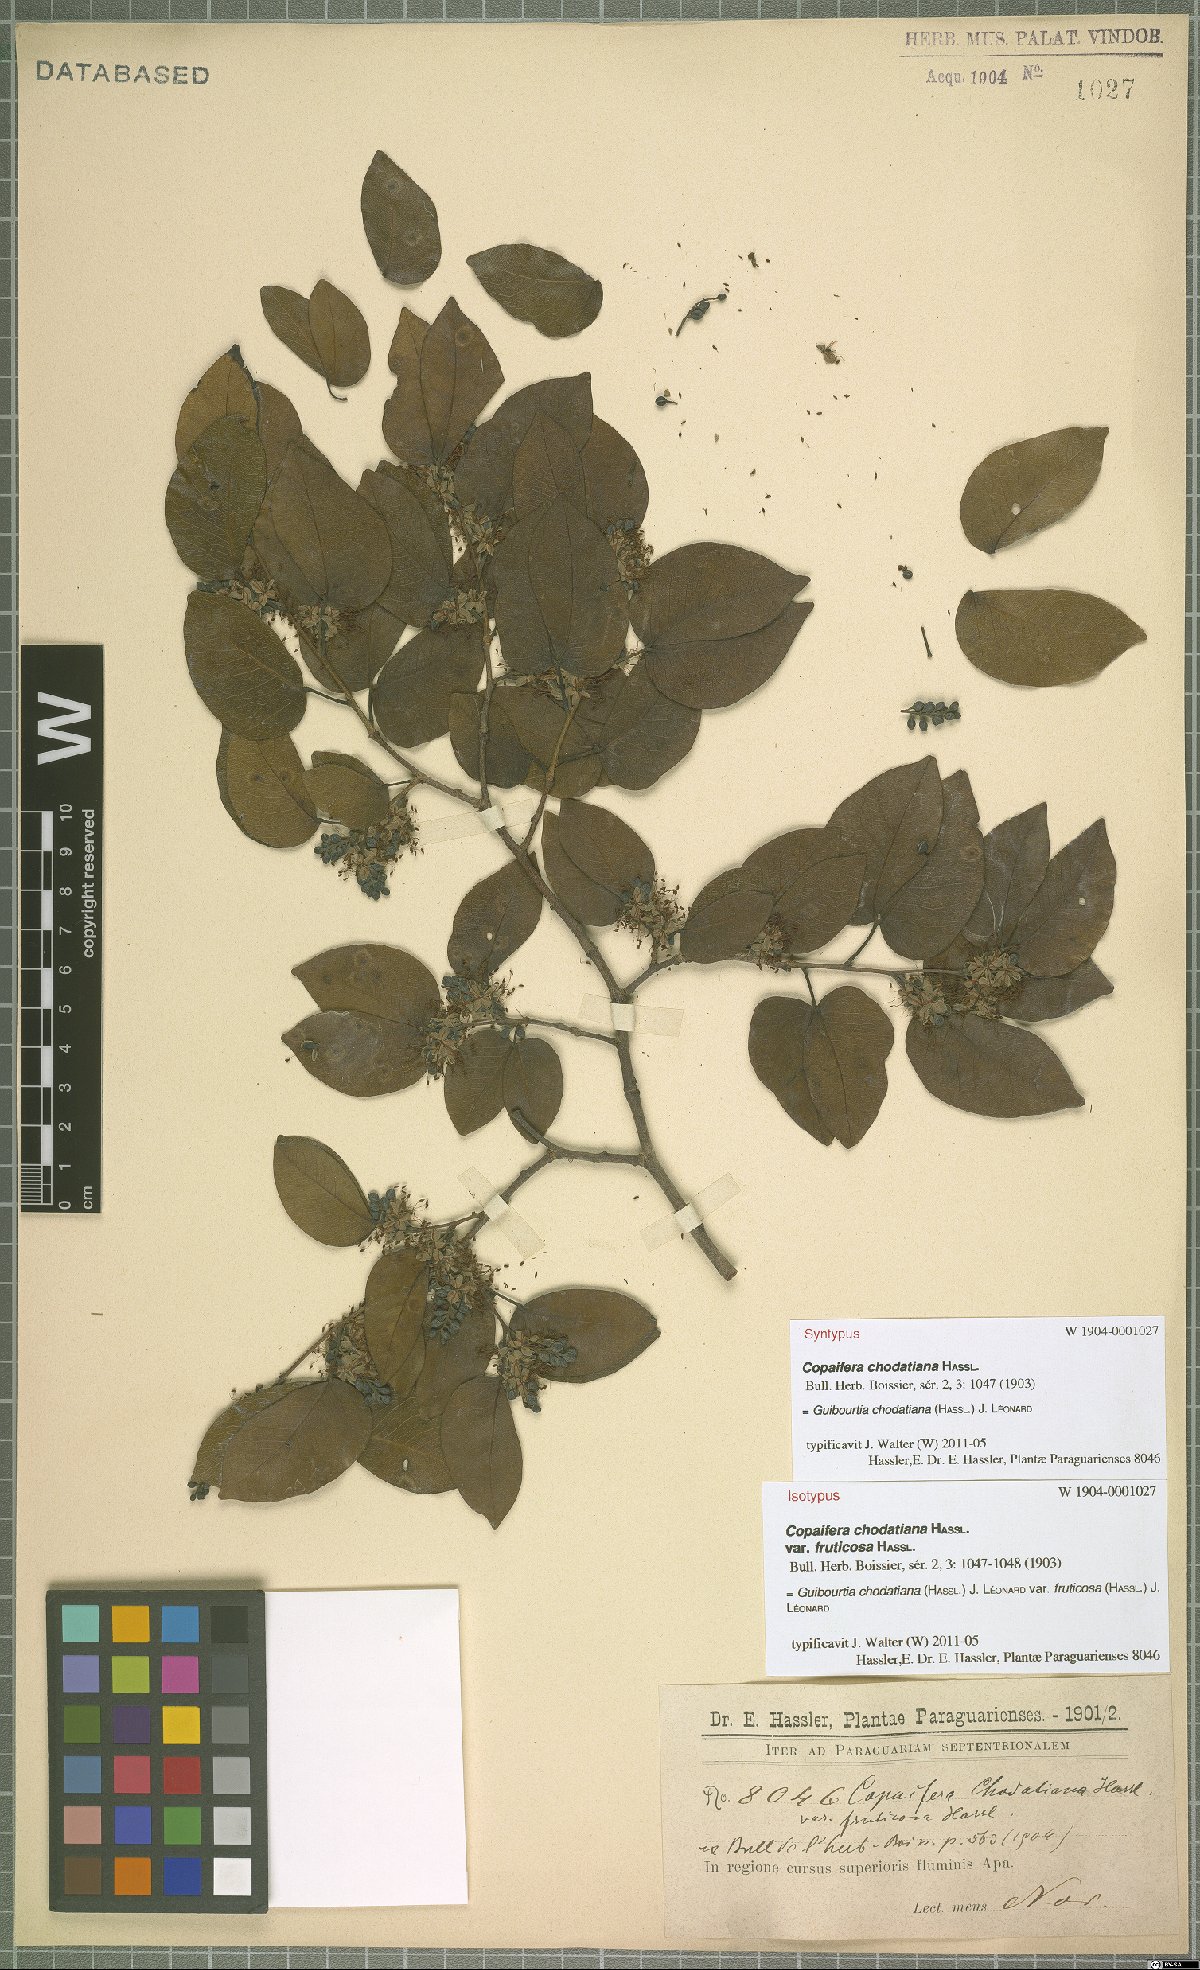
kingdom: Plantae
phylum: Tracheophyta
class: Magnoliopsida
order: Fabales
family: Fabaceae
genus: Guibourtia
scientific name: Guibourtia chodatiana
